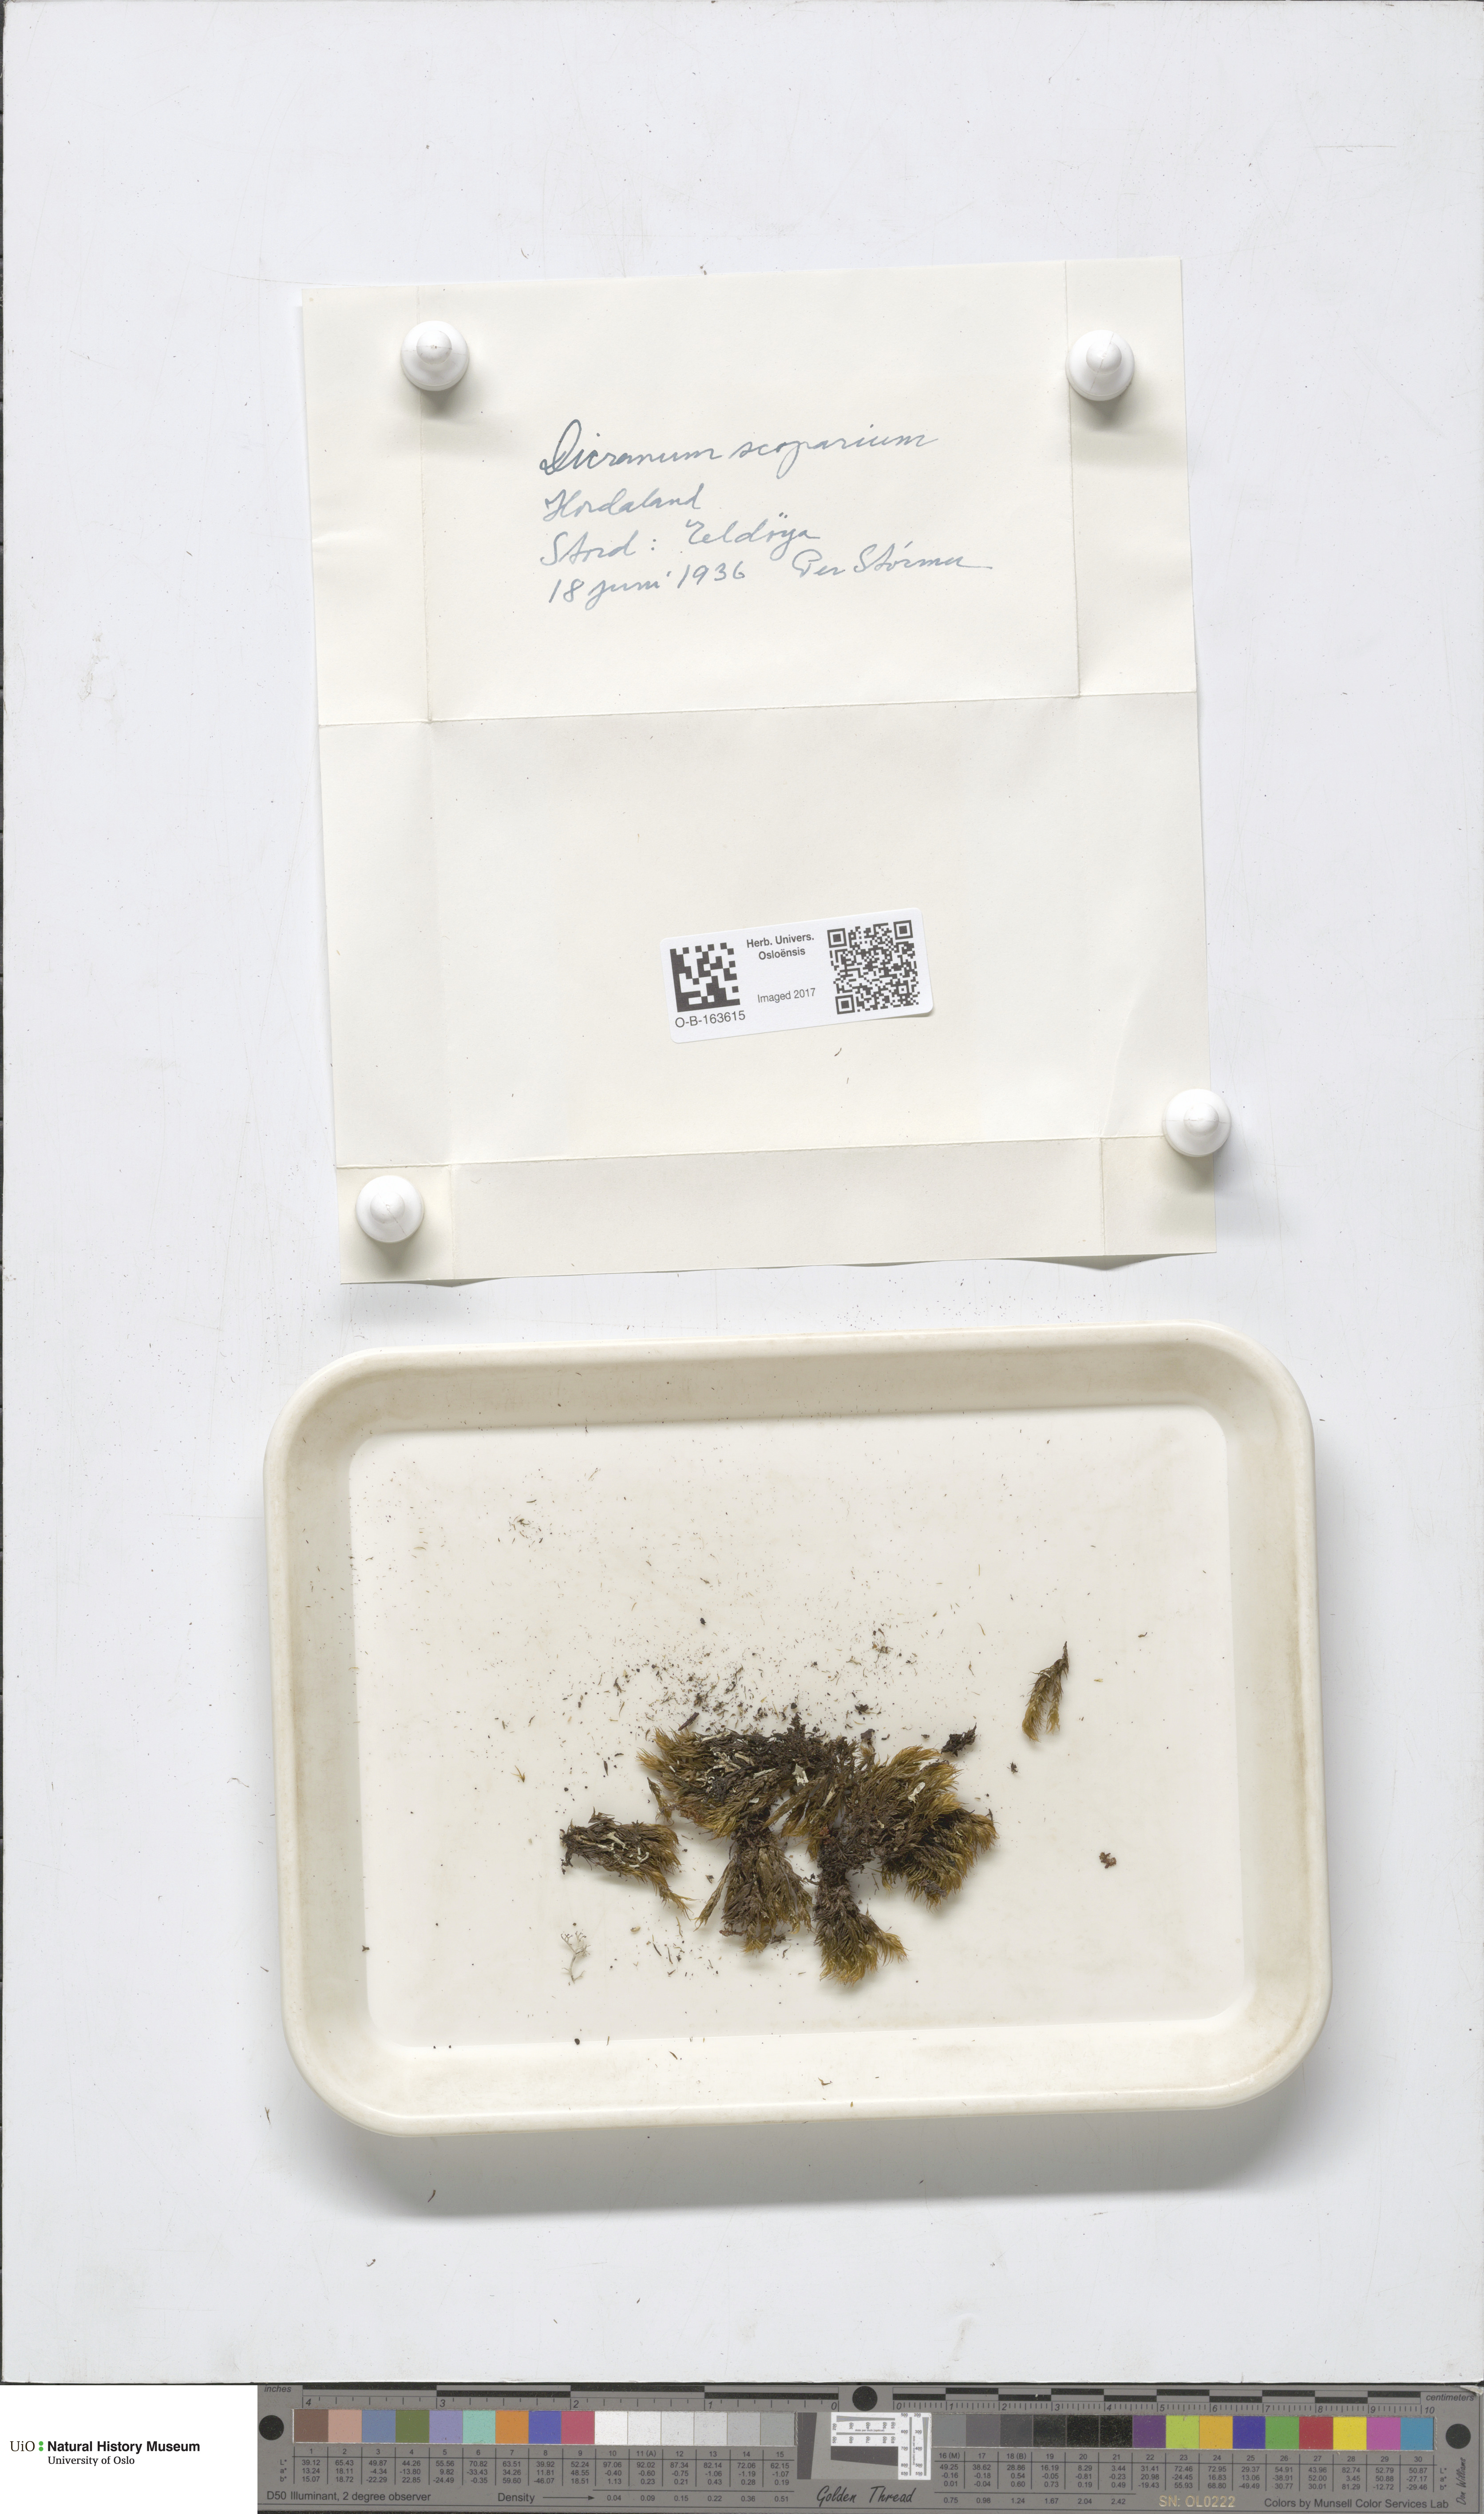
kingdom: Plantae
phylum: Bryophyta
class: Bryopsida
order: Dicranales
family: Dicranaceae
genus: Dicranum
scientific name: Dicranum scoparium
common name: Broom fork-moss
